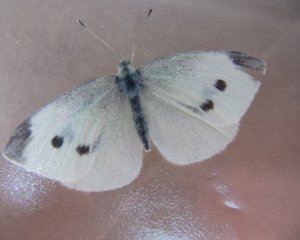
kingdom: Animalia
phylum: Arthropoda
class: Insecta
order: Lepidoptera
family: Pieridae
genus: Pieris
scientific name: Pieris rapae
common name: Cabbage White
